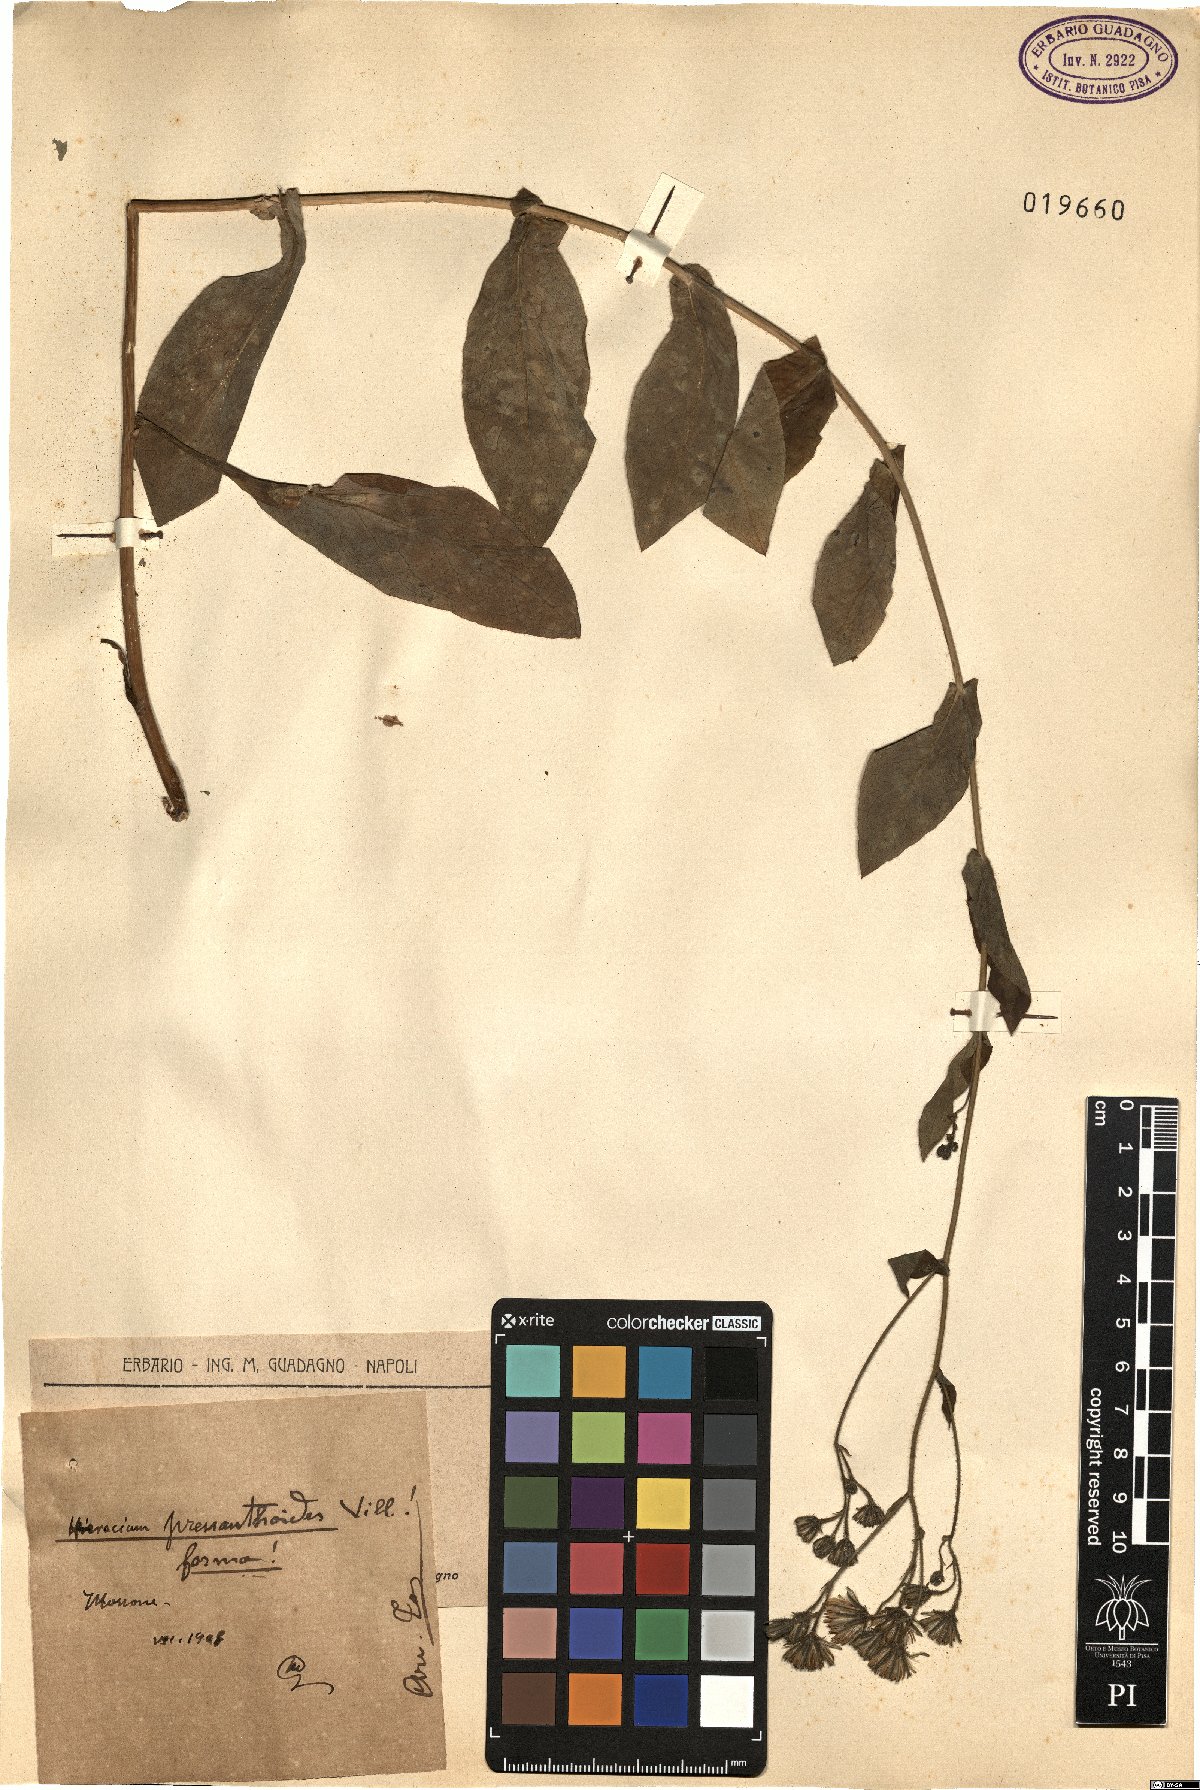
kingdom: Plantae
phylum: Tracheophyta
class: Magnoliopsida
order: Asterales
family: Asteraceae
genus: Hieracium
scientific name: Hieracium prenanthoides
